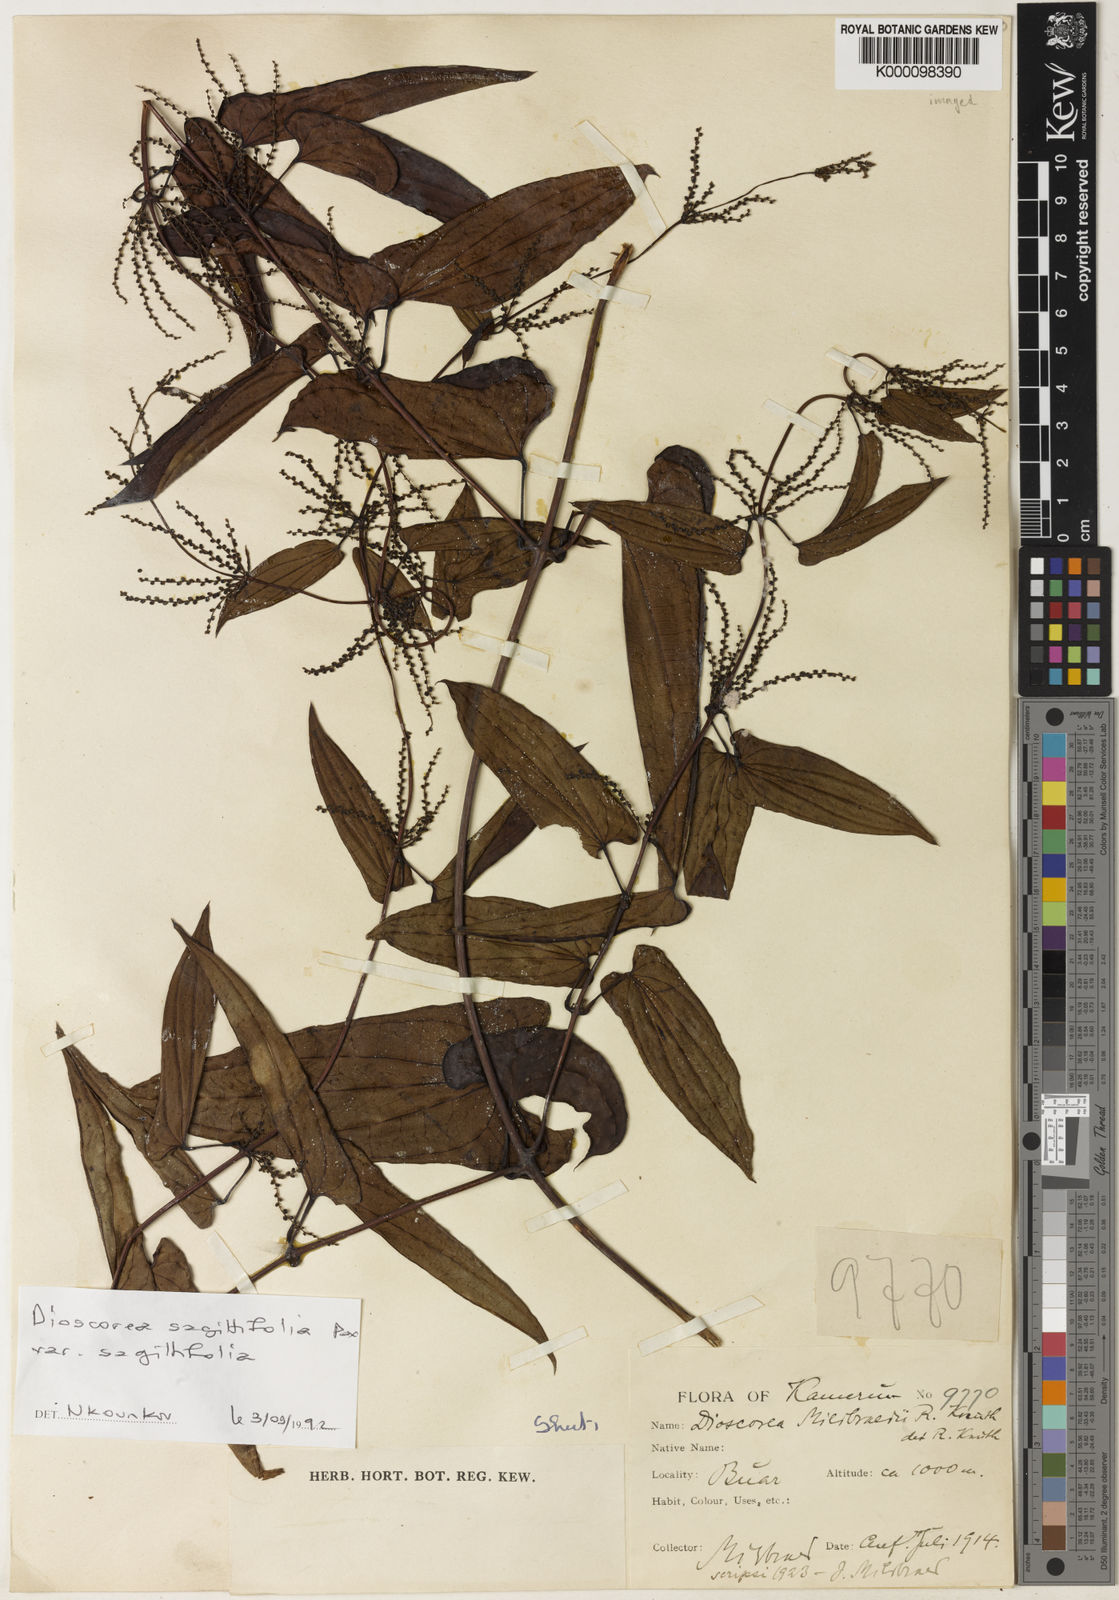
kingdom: Plantae
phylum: Tracheophyta
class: Liliopsida
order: Dioscoreales
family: Dioscoreaceae
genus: Dioscorea
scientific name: Dioscorea sagittifolia
